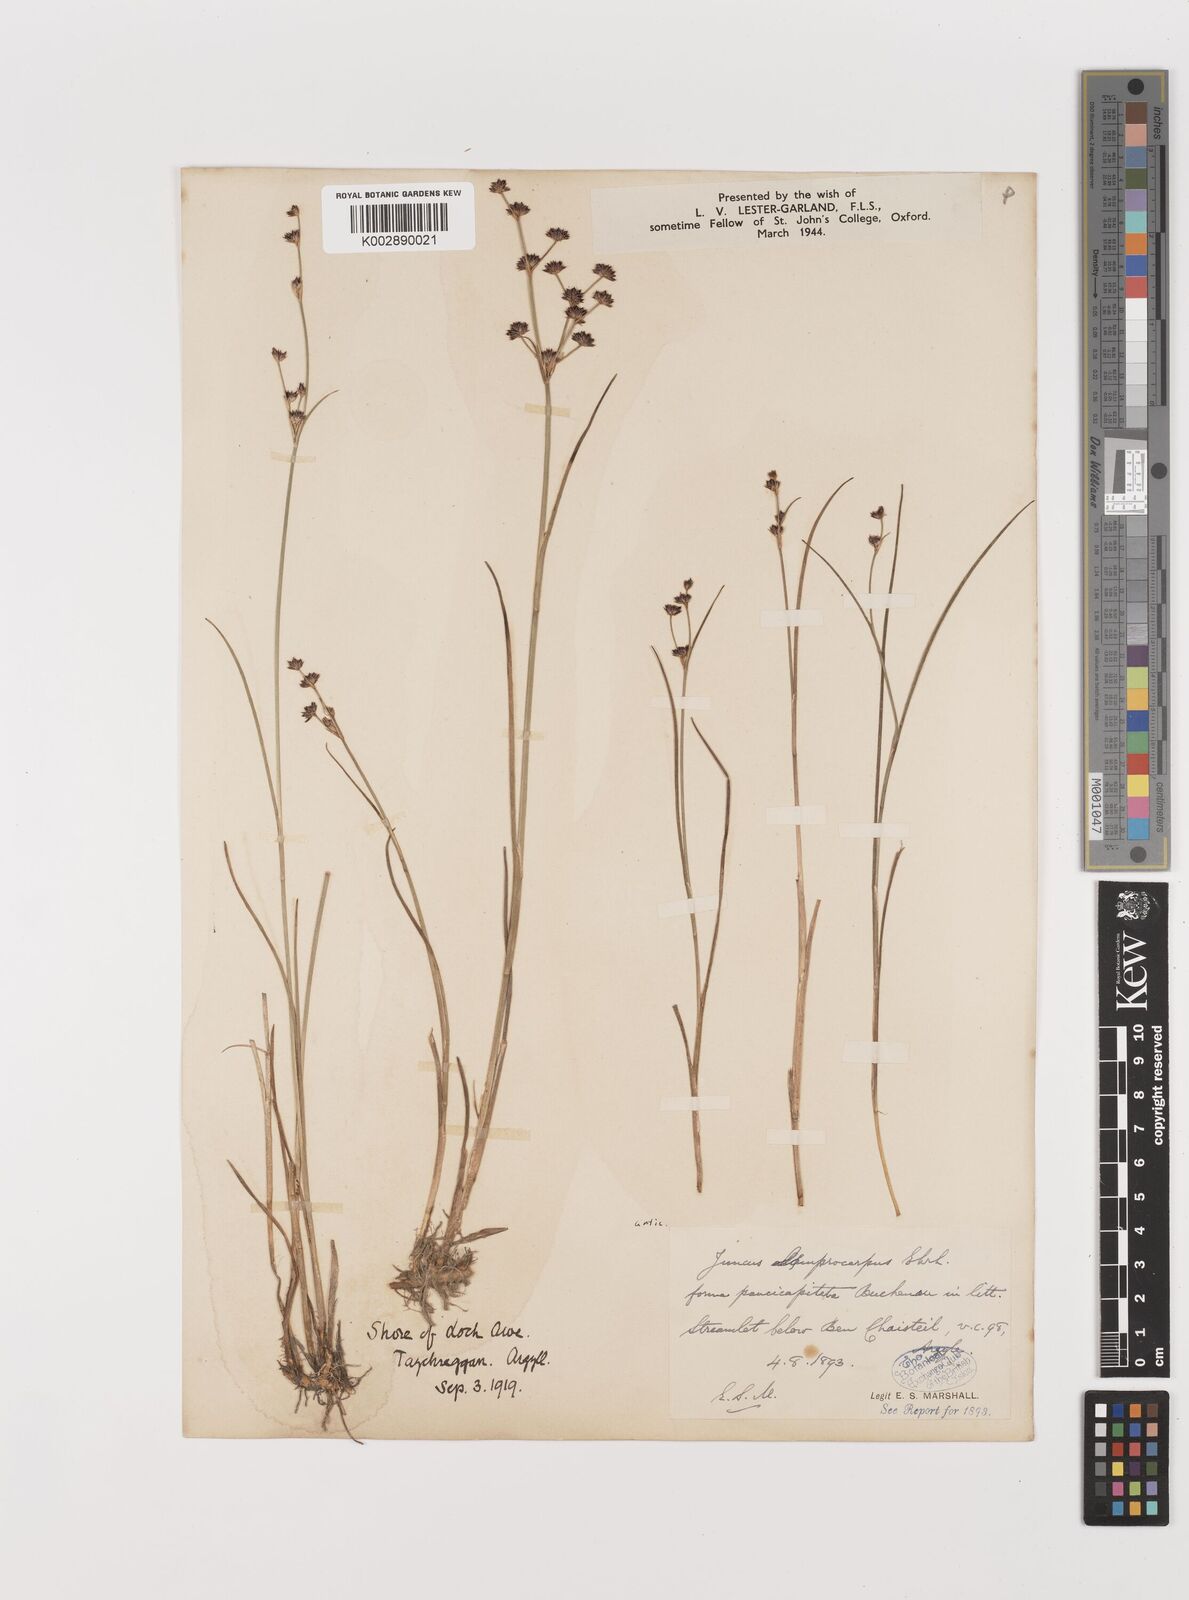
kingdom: Plantae
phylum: Tracheophyta
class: Liliopsida
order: Poales
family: Juncaceae
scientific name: Juncaceae
